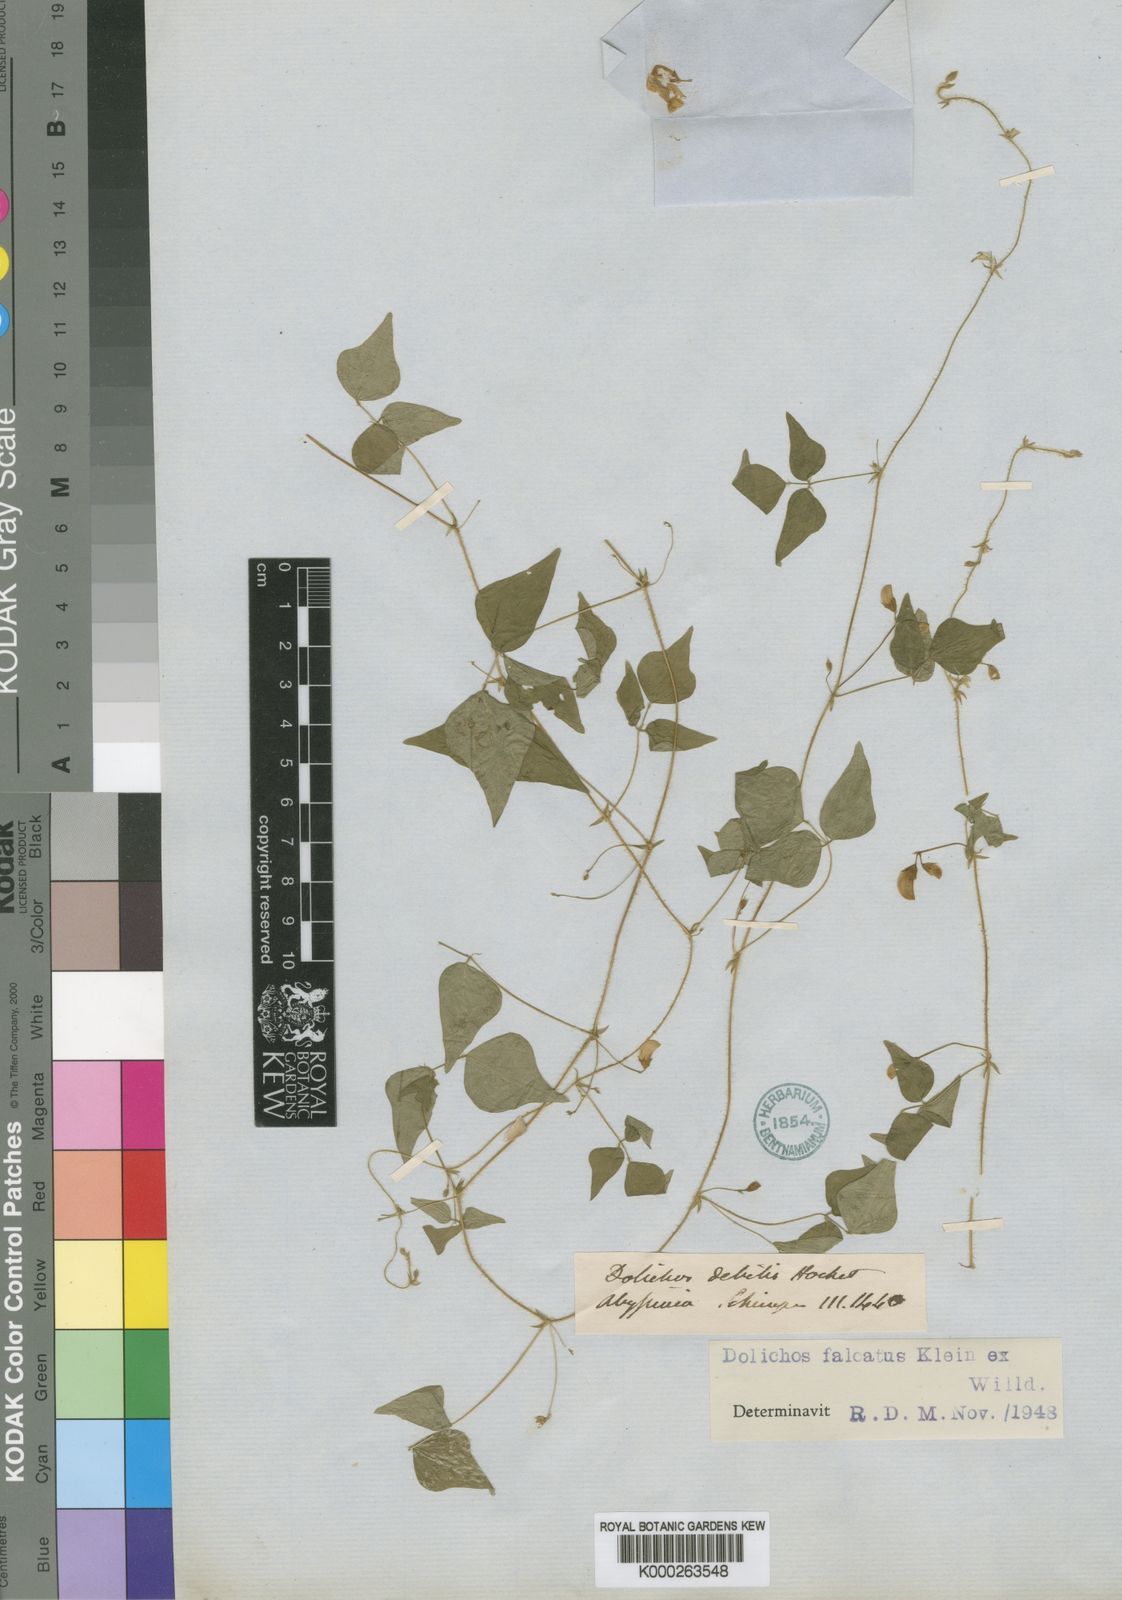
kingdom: Plantae
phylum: Tracheophyta
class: Magnoliopsida
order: Fabales
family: Fabaceae
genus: Dolichos
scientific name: Dolichos trilobus
